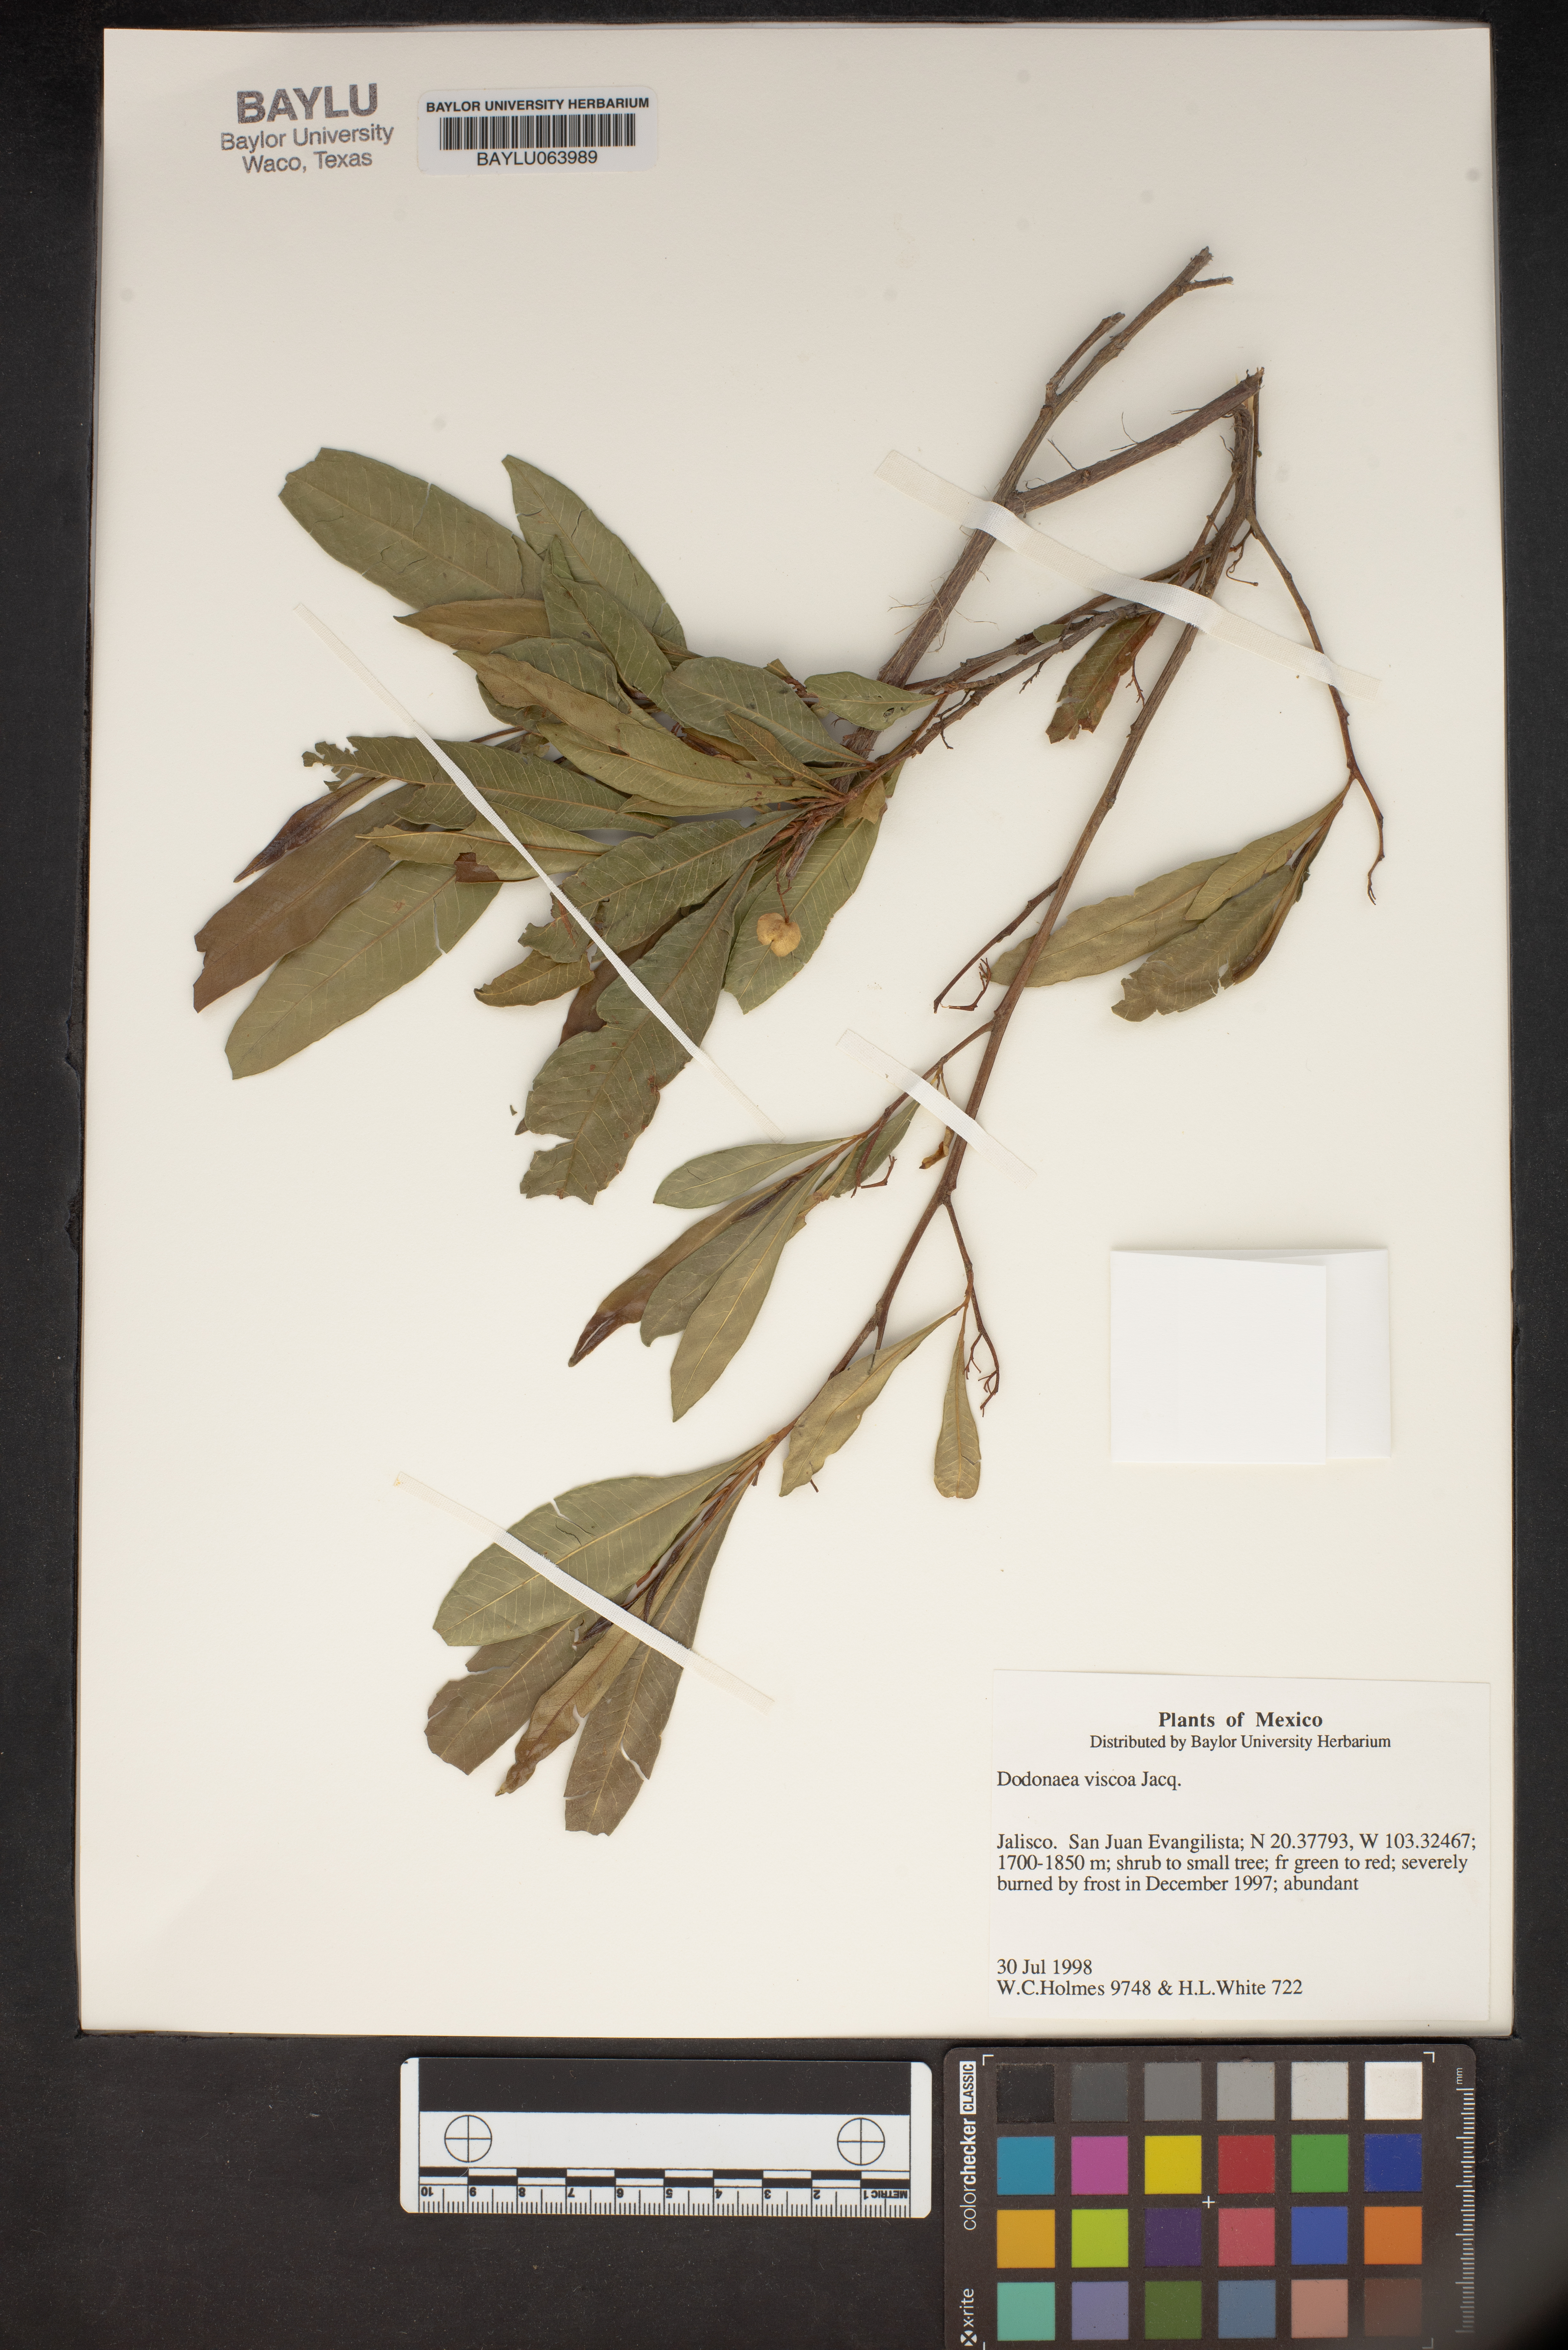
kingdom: Plantae
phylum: Tracheophyta
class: Magnoliopsida
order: Sapindales
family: Sapindaceae
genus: Dodonaea
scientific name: Dodonaea viscosa
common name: Hopbush
